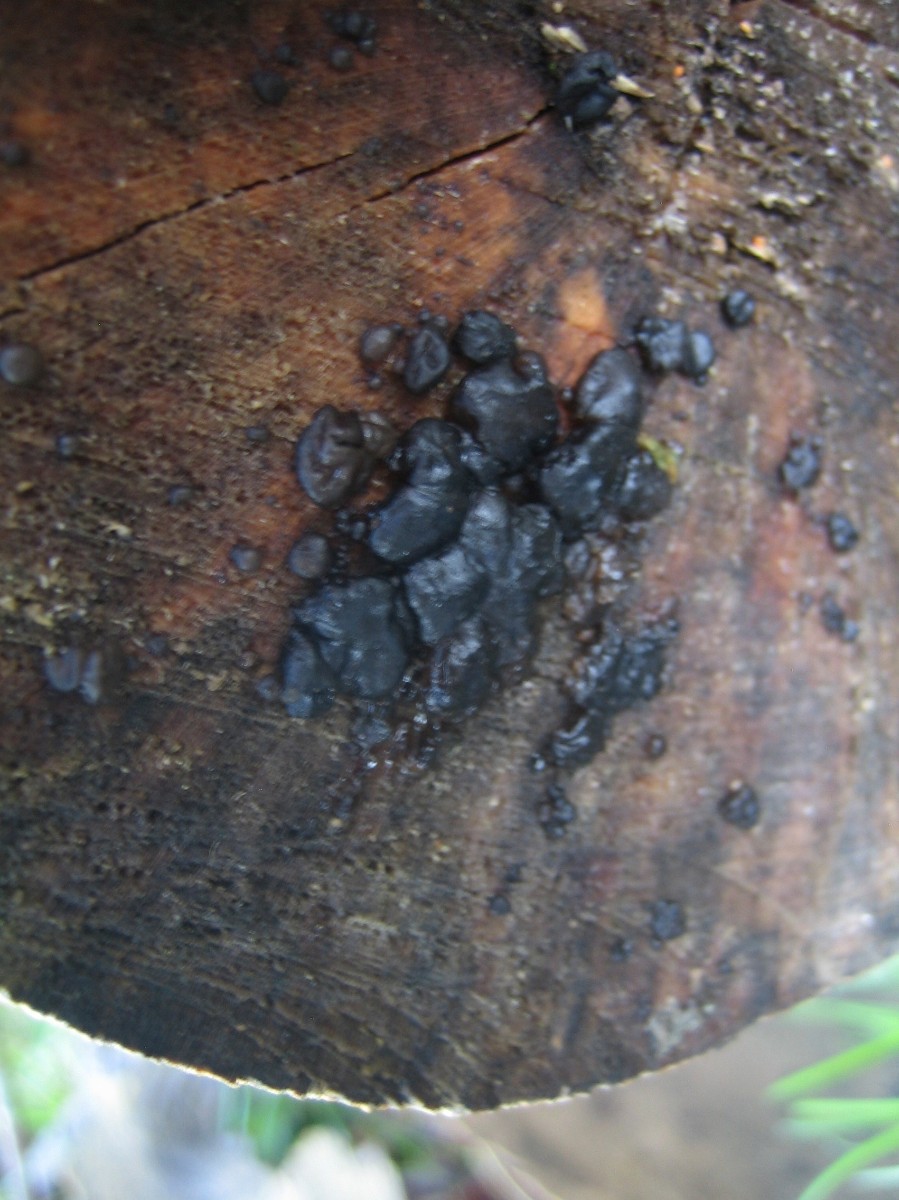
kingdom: Fungi
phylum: Basidiomycota
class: Agaricomycetes
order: Auriculariales
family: Auriculariaceae
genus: Exidia
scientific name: Exidia nigricans
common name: almindelig bævretop
